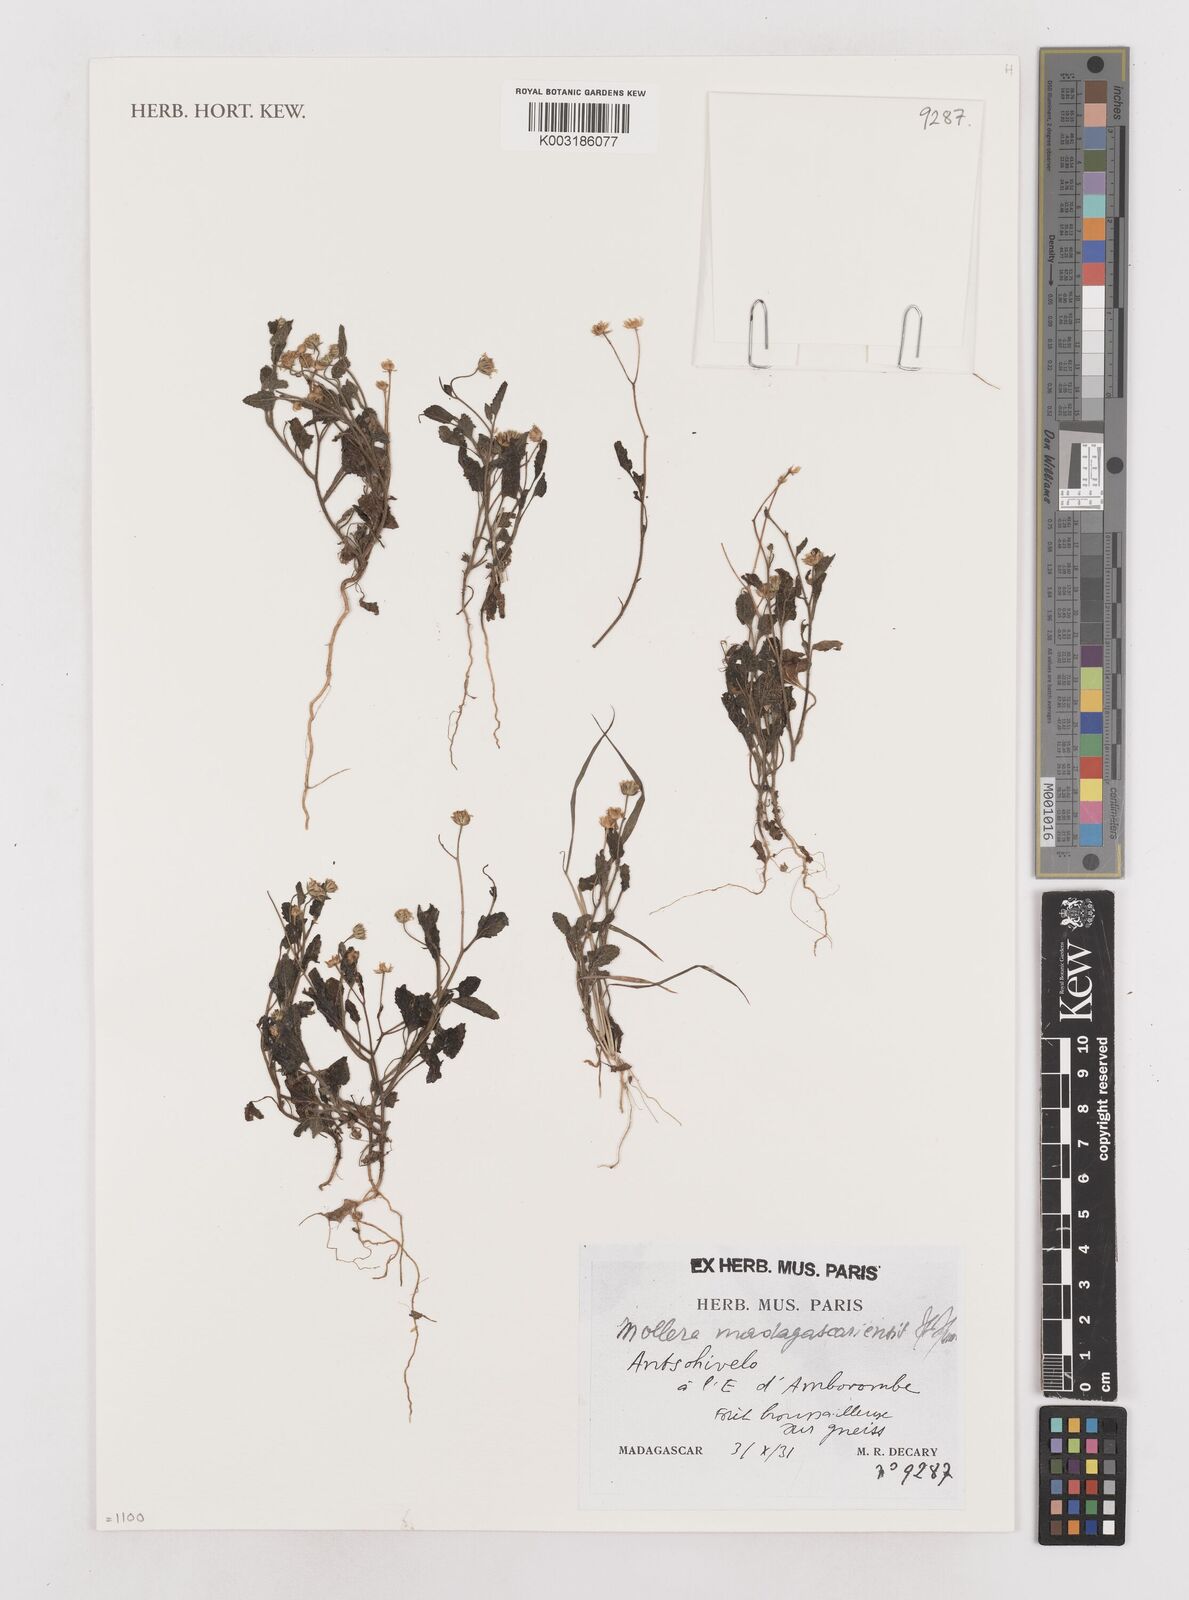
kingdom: Plantae
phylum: Tracheophyta
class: Magnoliopsida
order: Asterales
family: Asteraceae
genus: Calostephane
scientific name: Calostephane madagascariensis
